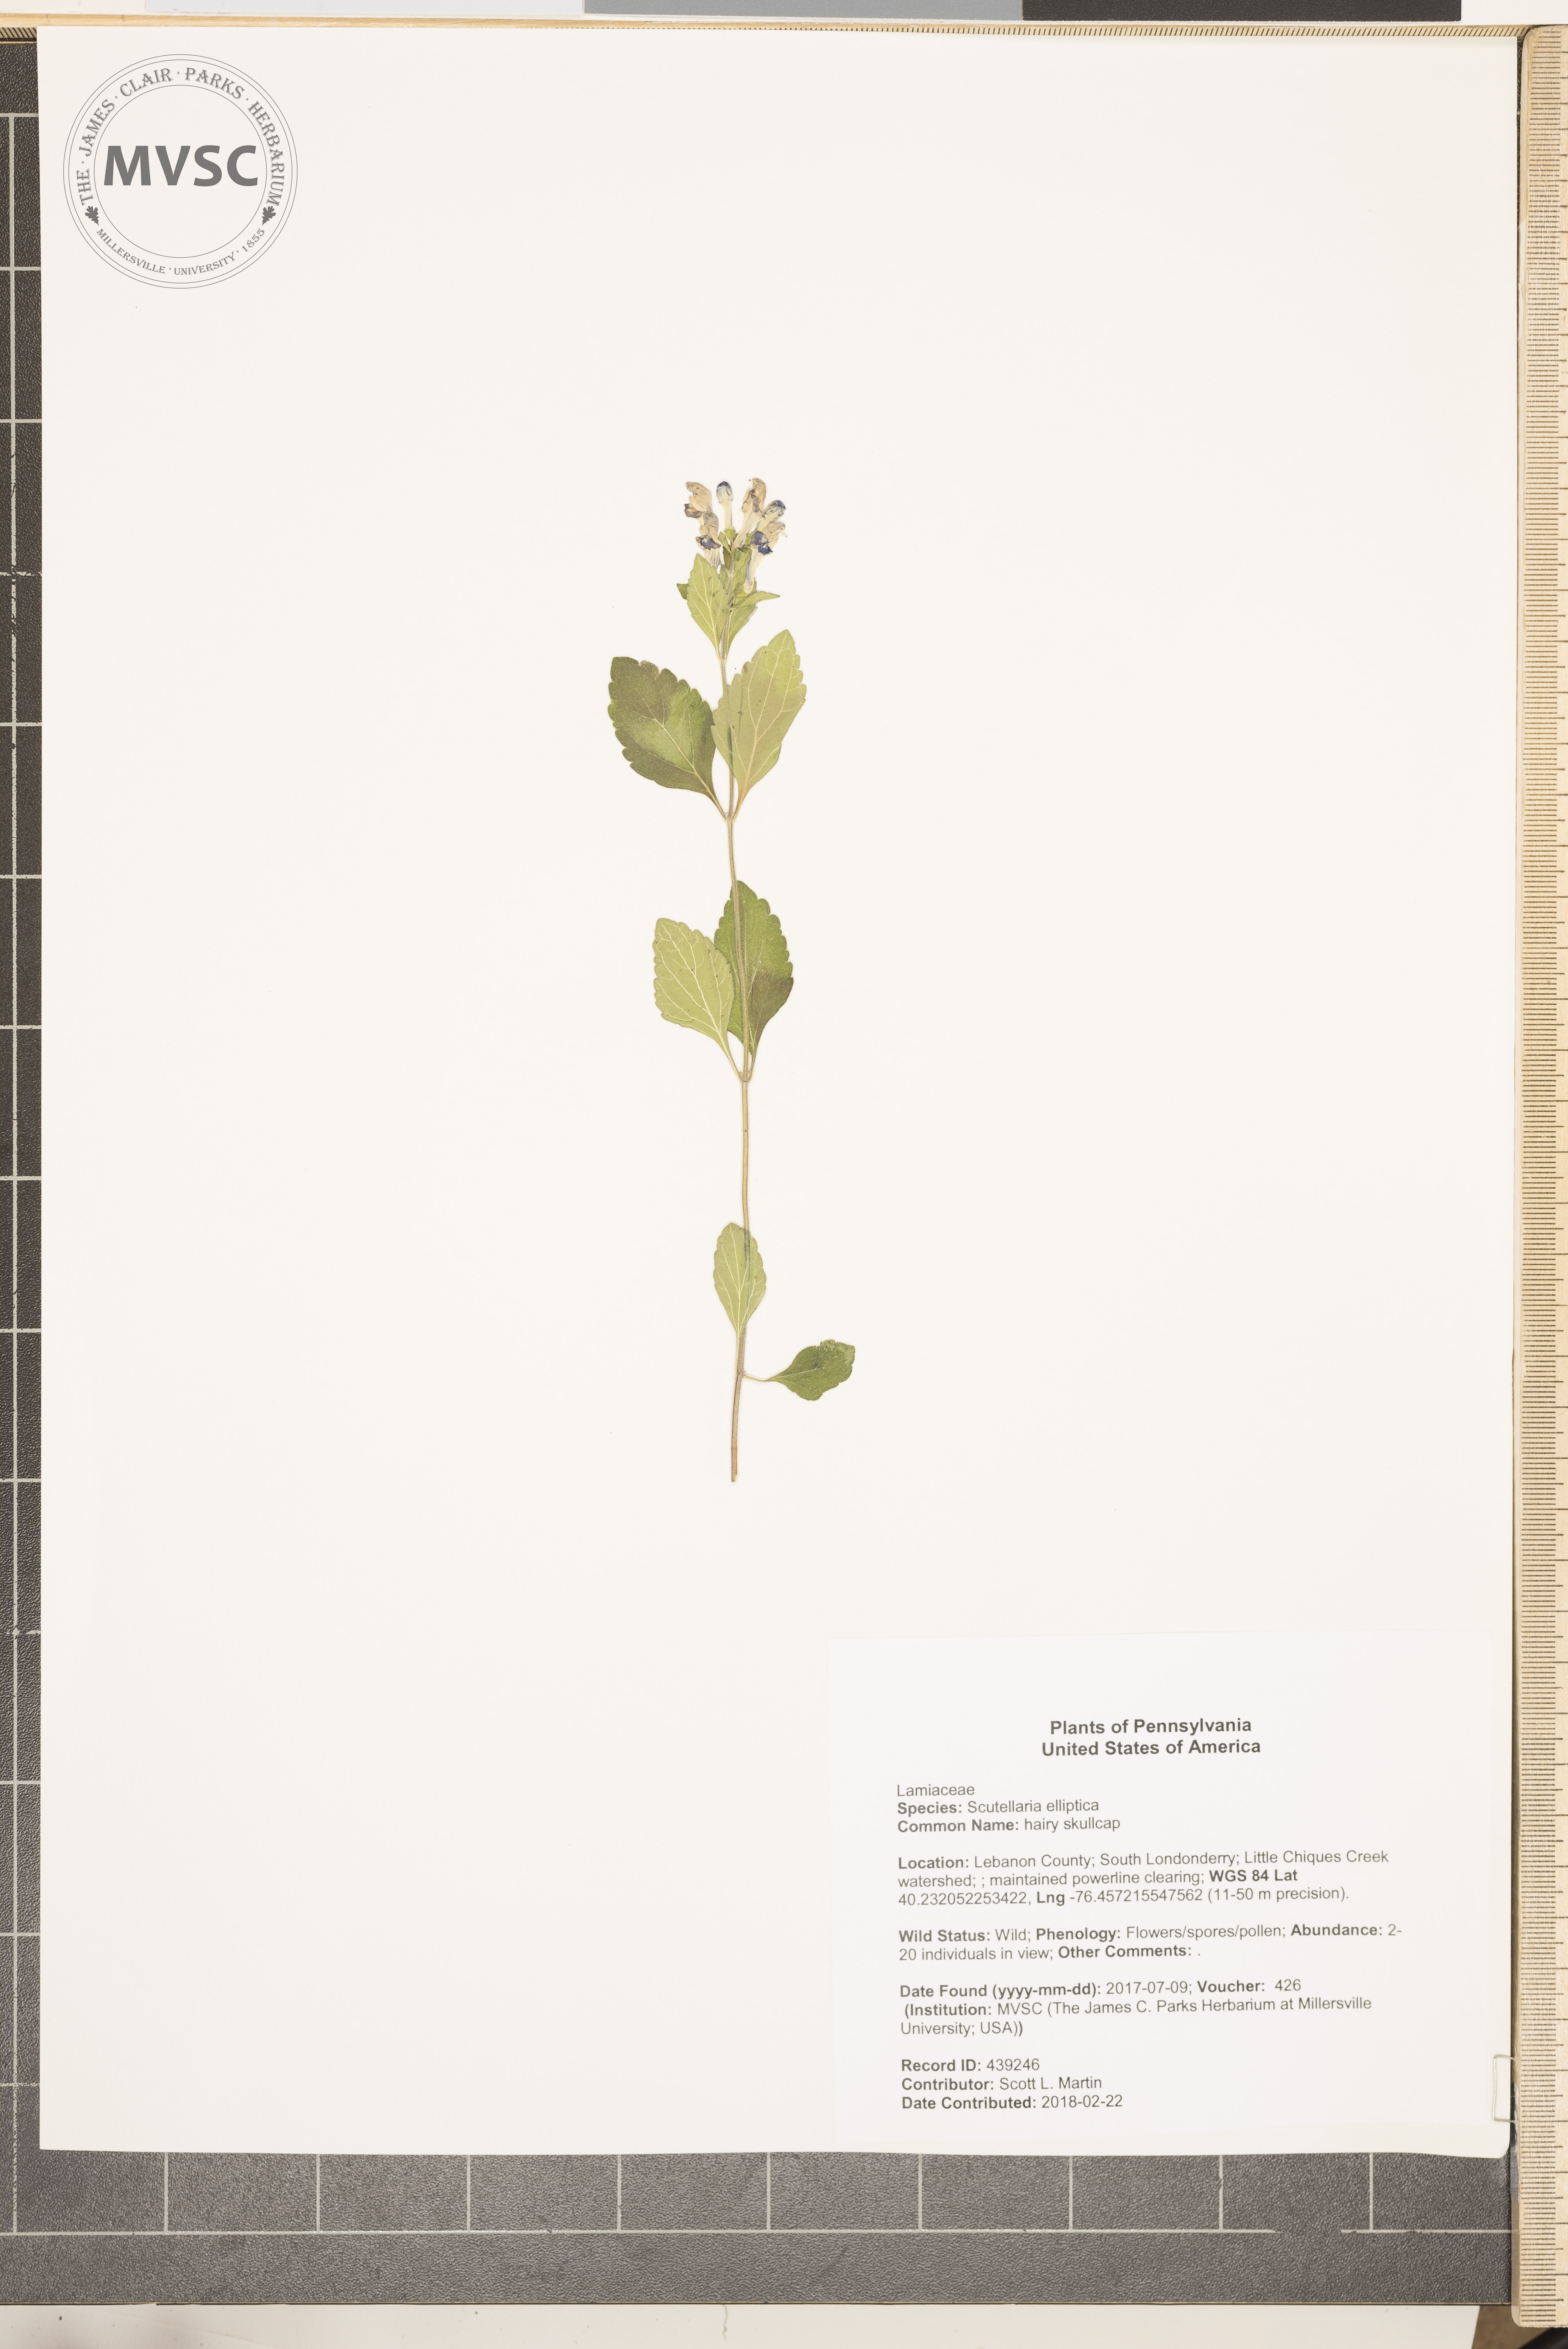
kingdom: Plantae
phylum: Tracheophyta
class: Magnoliopsida
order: Lamiales
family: Lamiaceae
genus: Scutellaria
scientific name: Scutellaria elliptica
